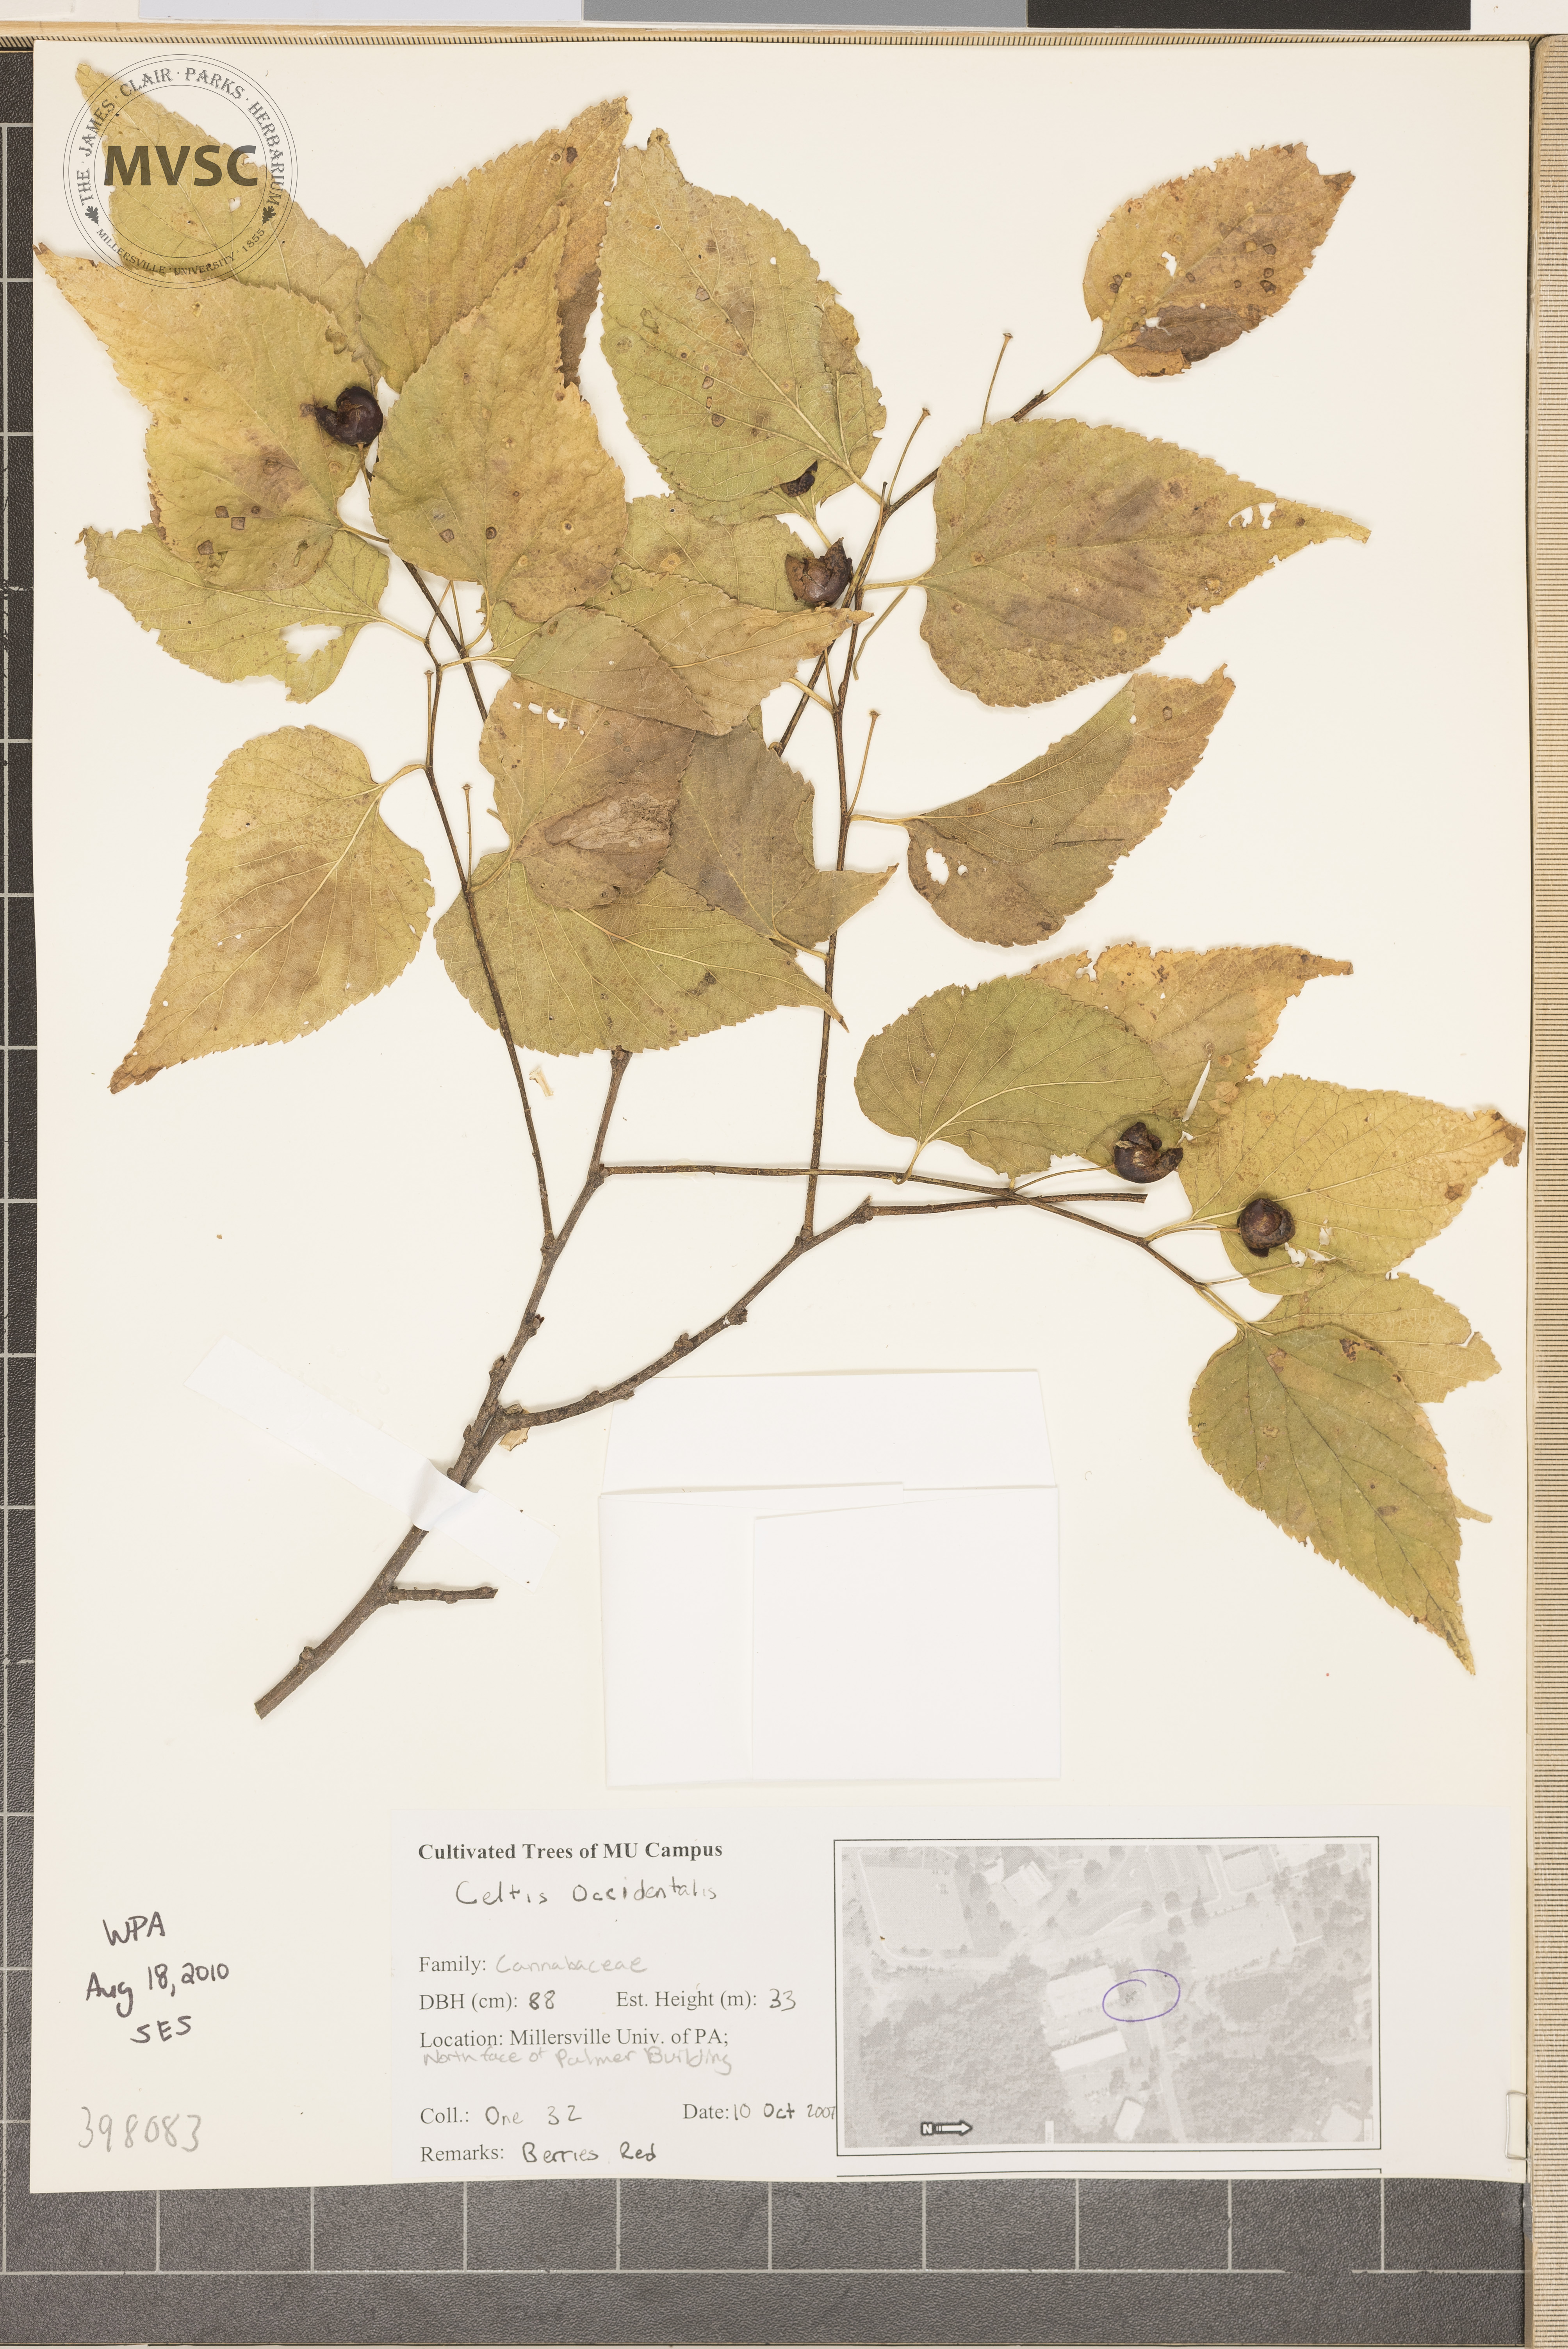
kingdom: Plantae
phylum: Tracheophyta
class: Magnoliopsida
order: Rosales
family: Cannabaceae
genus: Celtis
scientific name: Celtis occidentalis
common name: Dogberry
